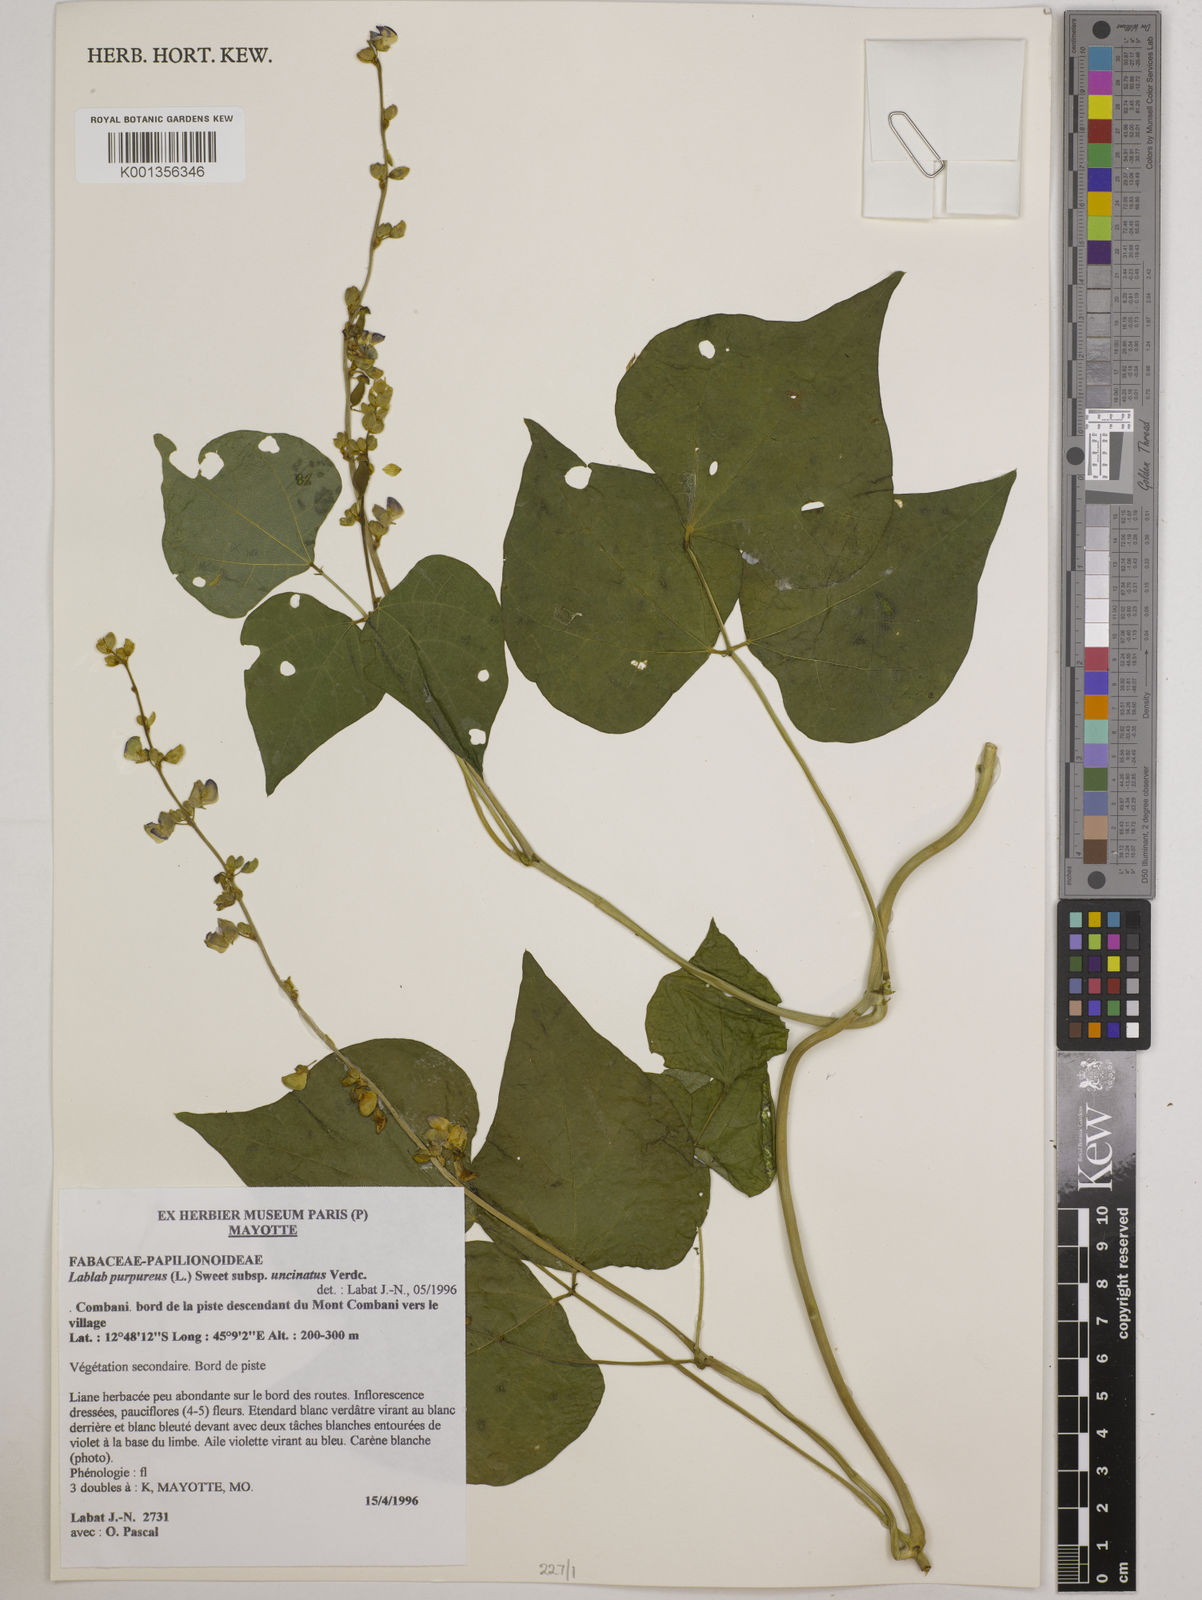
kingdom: Plantae
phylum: Tracheophyta
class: Magnoliopsida
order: Fabales
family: Fabaceae
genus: Lablab
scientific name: Lablab purpureus
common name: Lablab-bean
